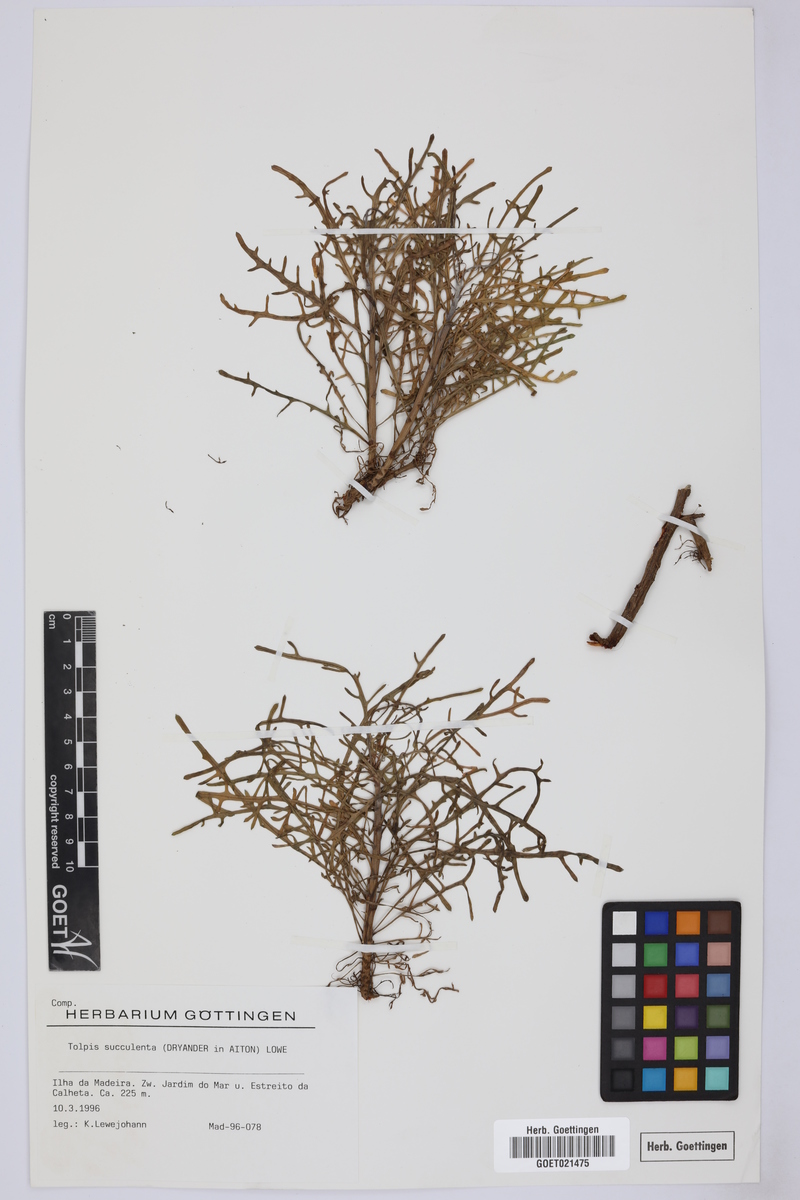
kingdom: Plantae
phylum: Tracheophyta
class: Magnoliopsida
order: Asterales
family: Asteraceae
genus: Tolpis
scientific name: Tolpis succulenta
